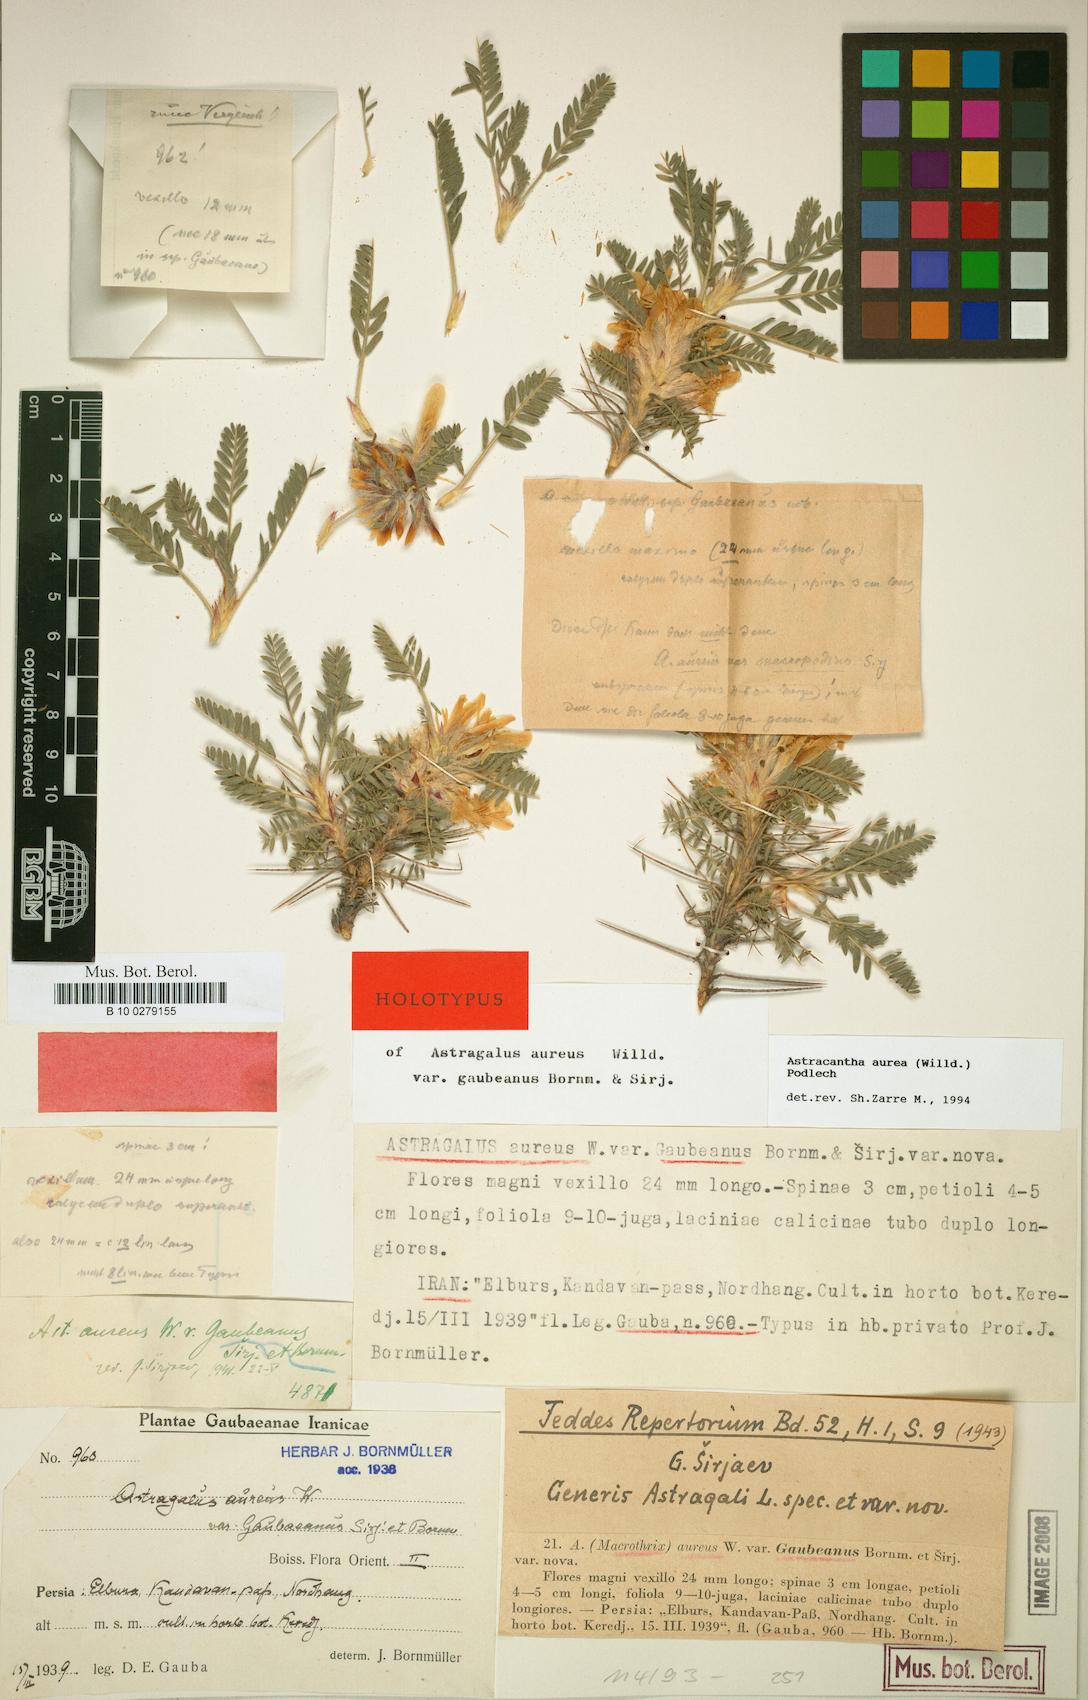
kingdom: Plantae
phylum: Tracheophyta
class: Magnoliopsida
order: Fabales
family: Fabaceae
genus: Astragalus
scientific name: Astragalus aureus
